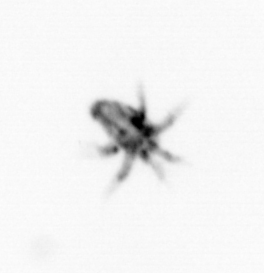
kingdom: Animalia
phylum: Arthropoda
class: Copepoda
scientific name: Copepoda
